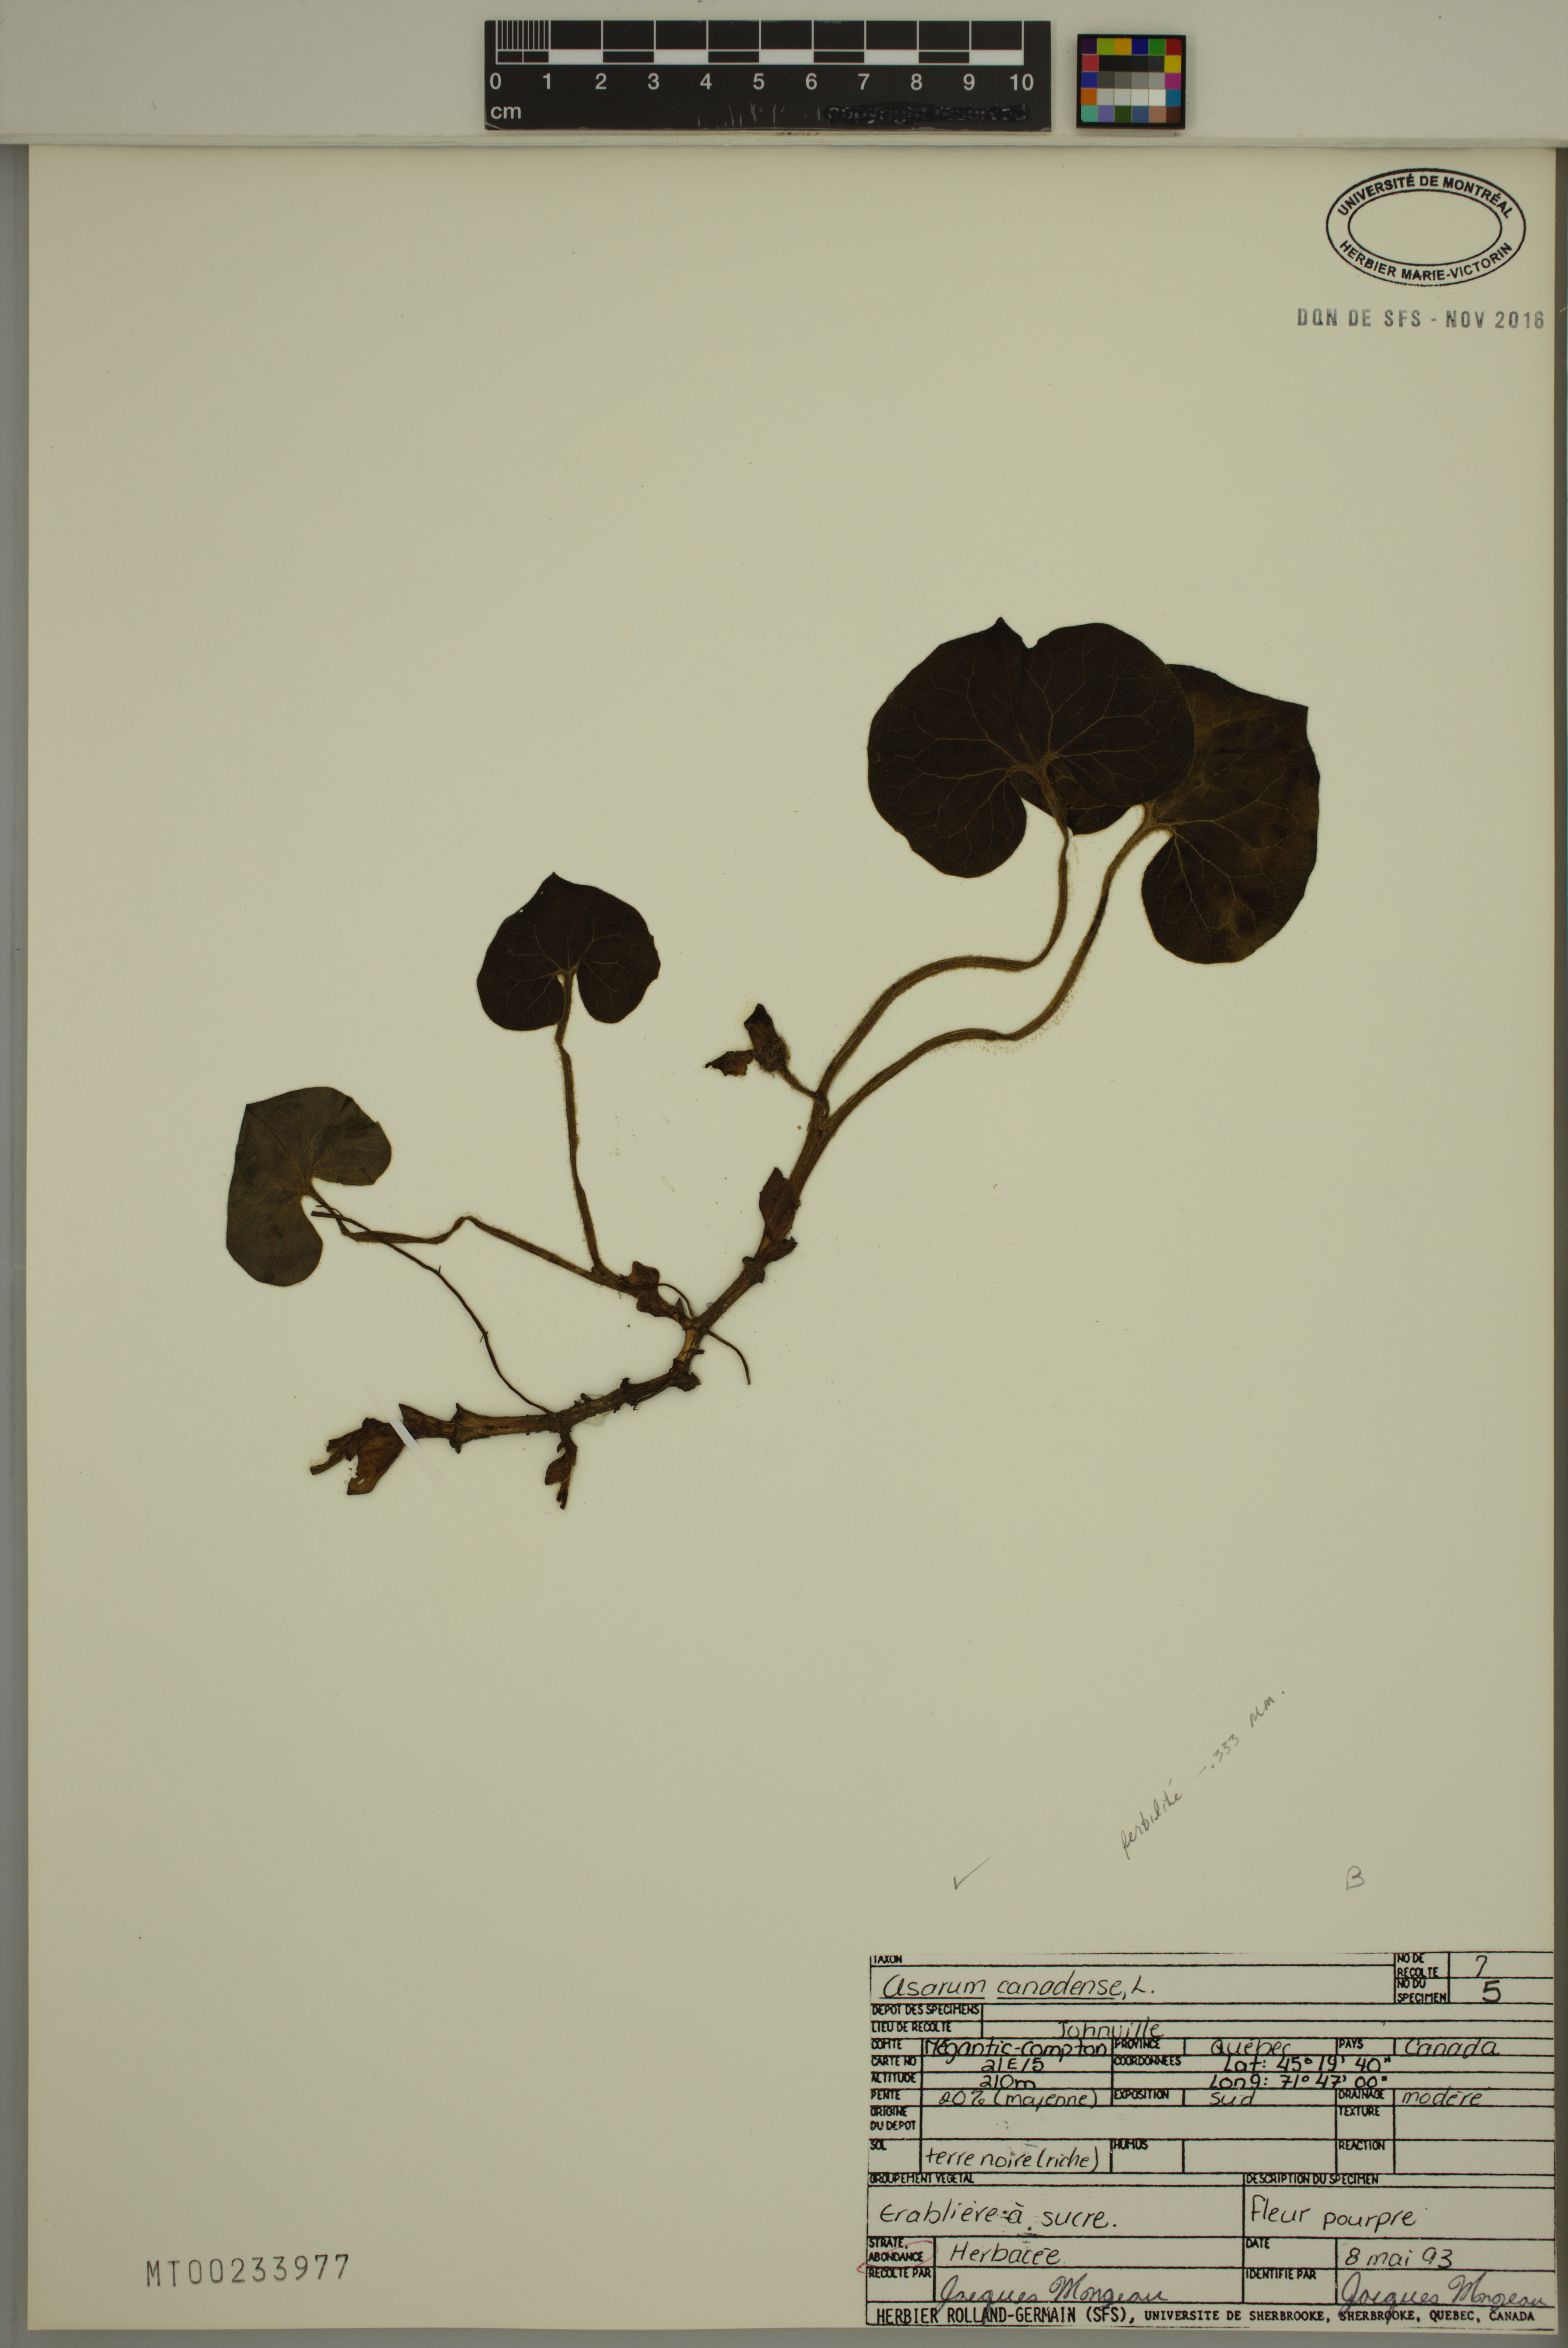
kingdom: Plantae
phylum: Tracheophyta
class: Magnoliopsida
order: Piperales
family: Aristolochiaceae
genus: Asarum
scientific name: Asarum canadense
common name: Wild ginger
